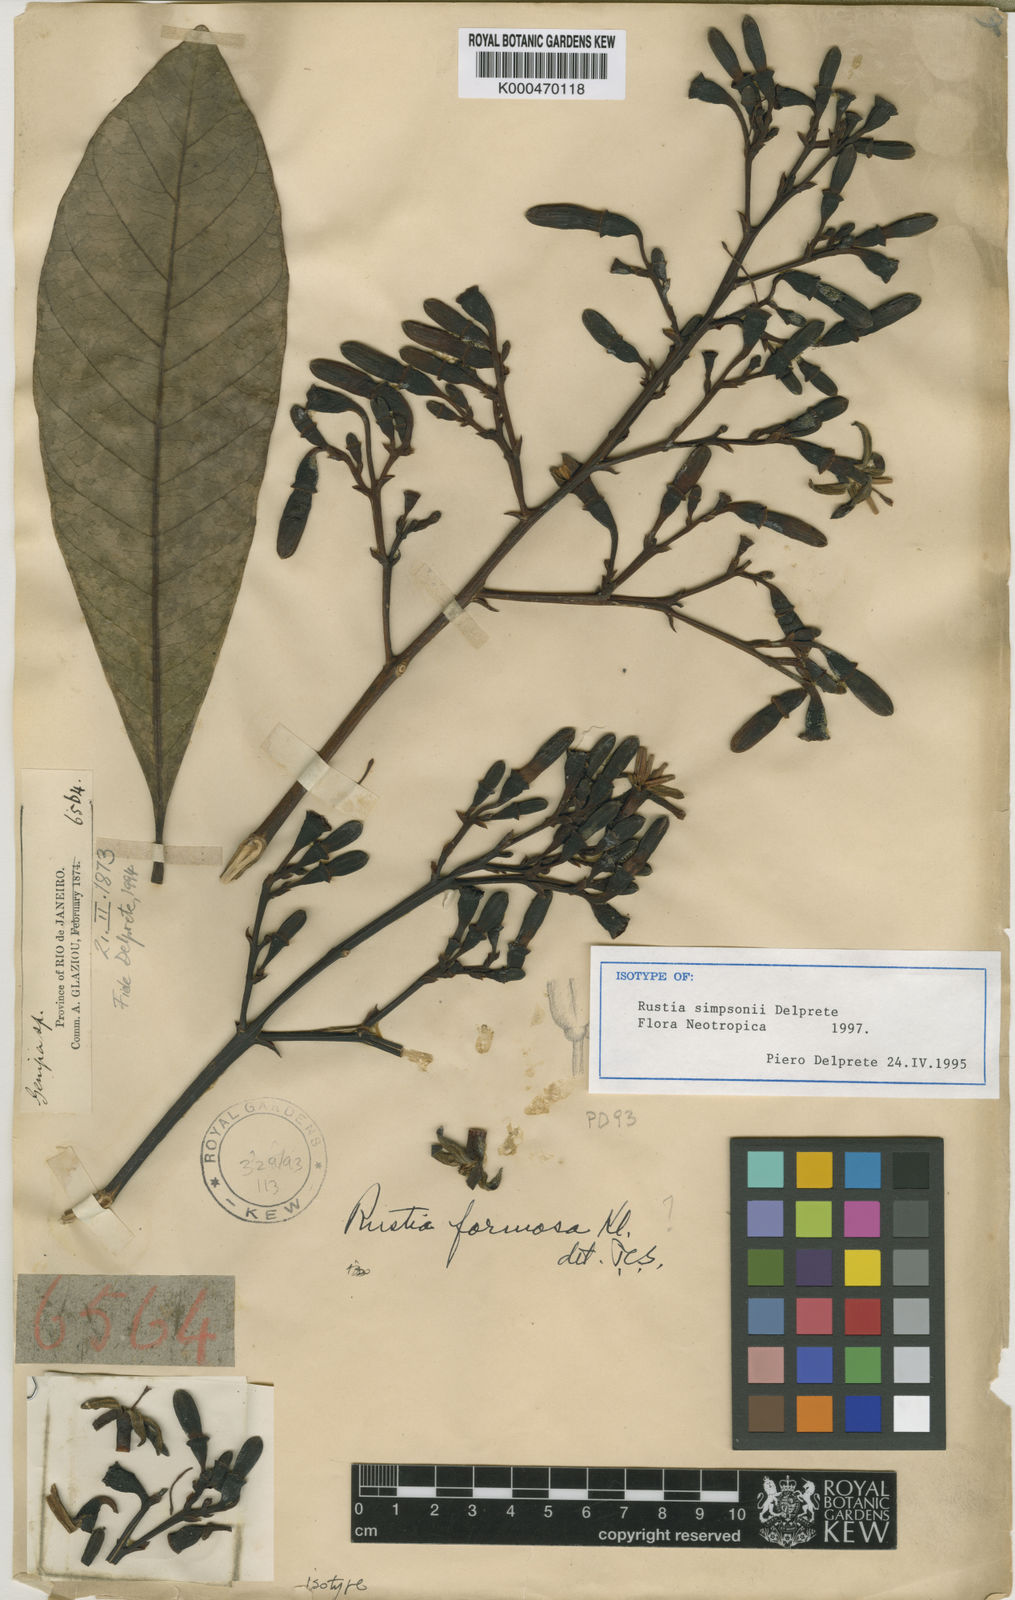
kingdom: Plantae
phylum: Tracheophyta
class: Magnoliopsida
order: Gentianales
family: Rubiaceae
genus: Rustia
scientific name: Rustia simpsonii
